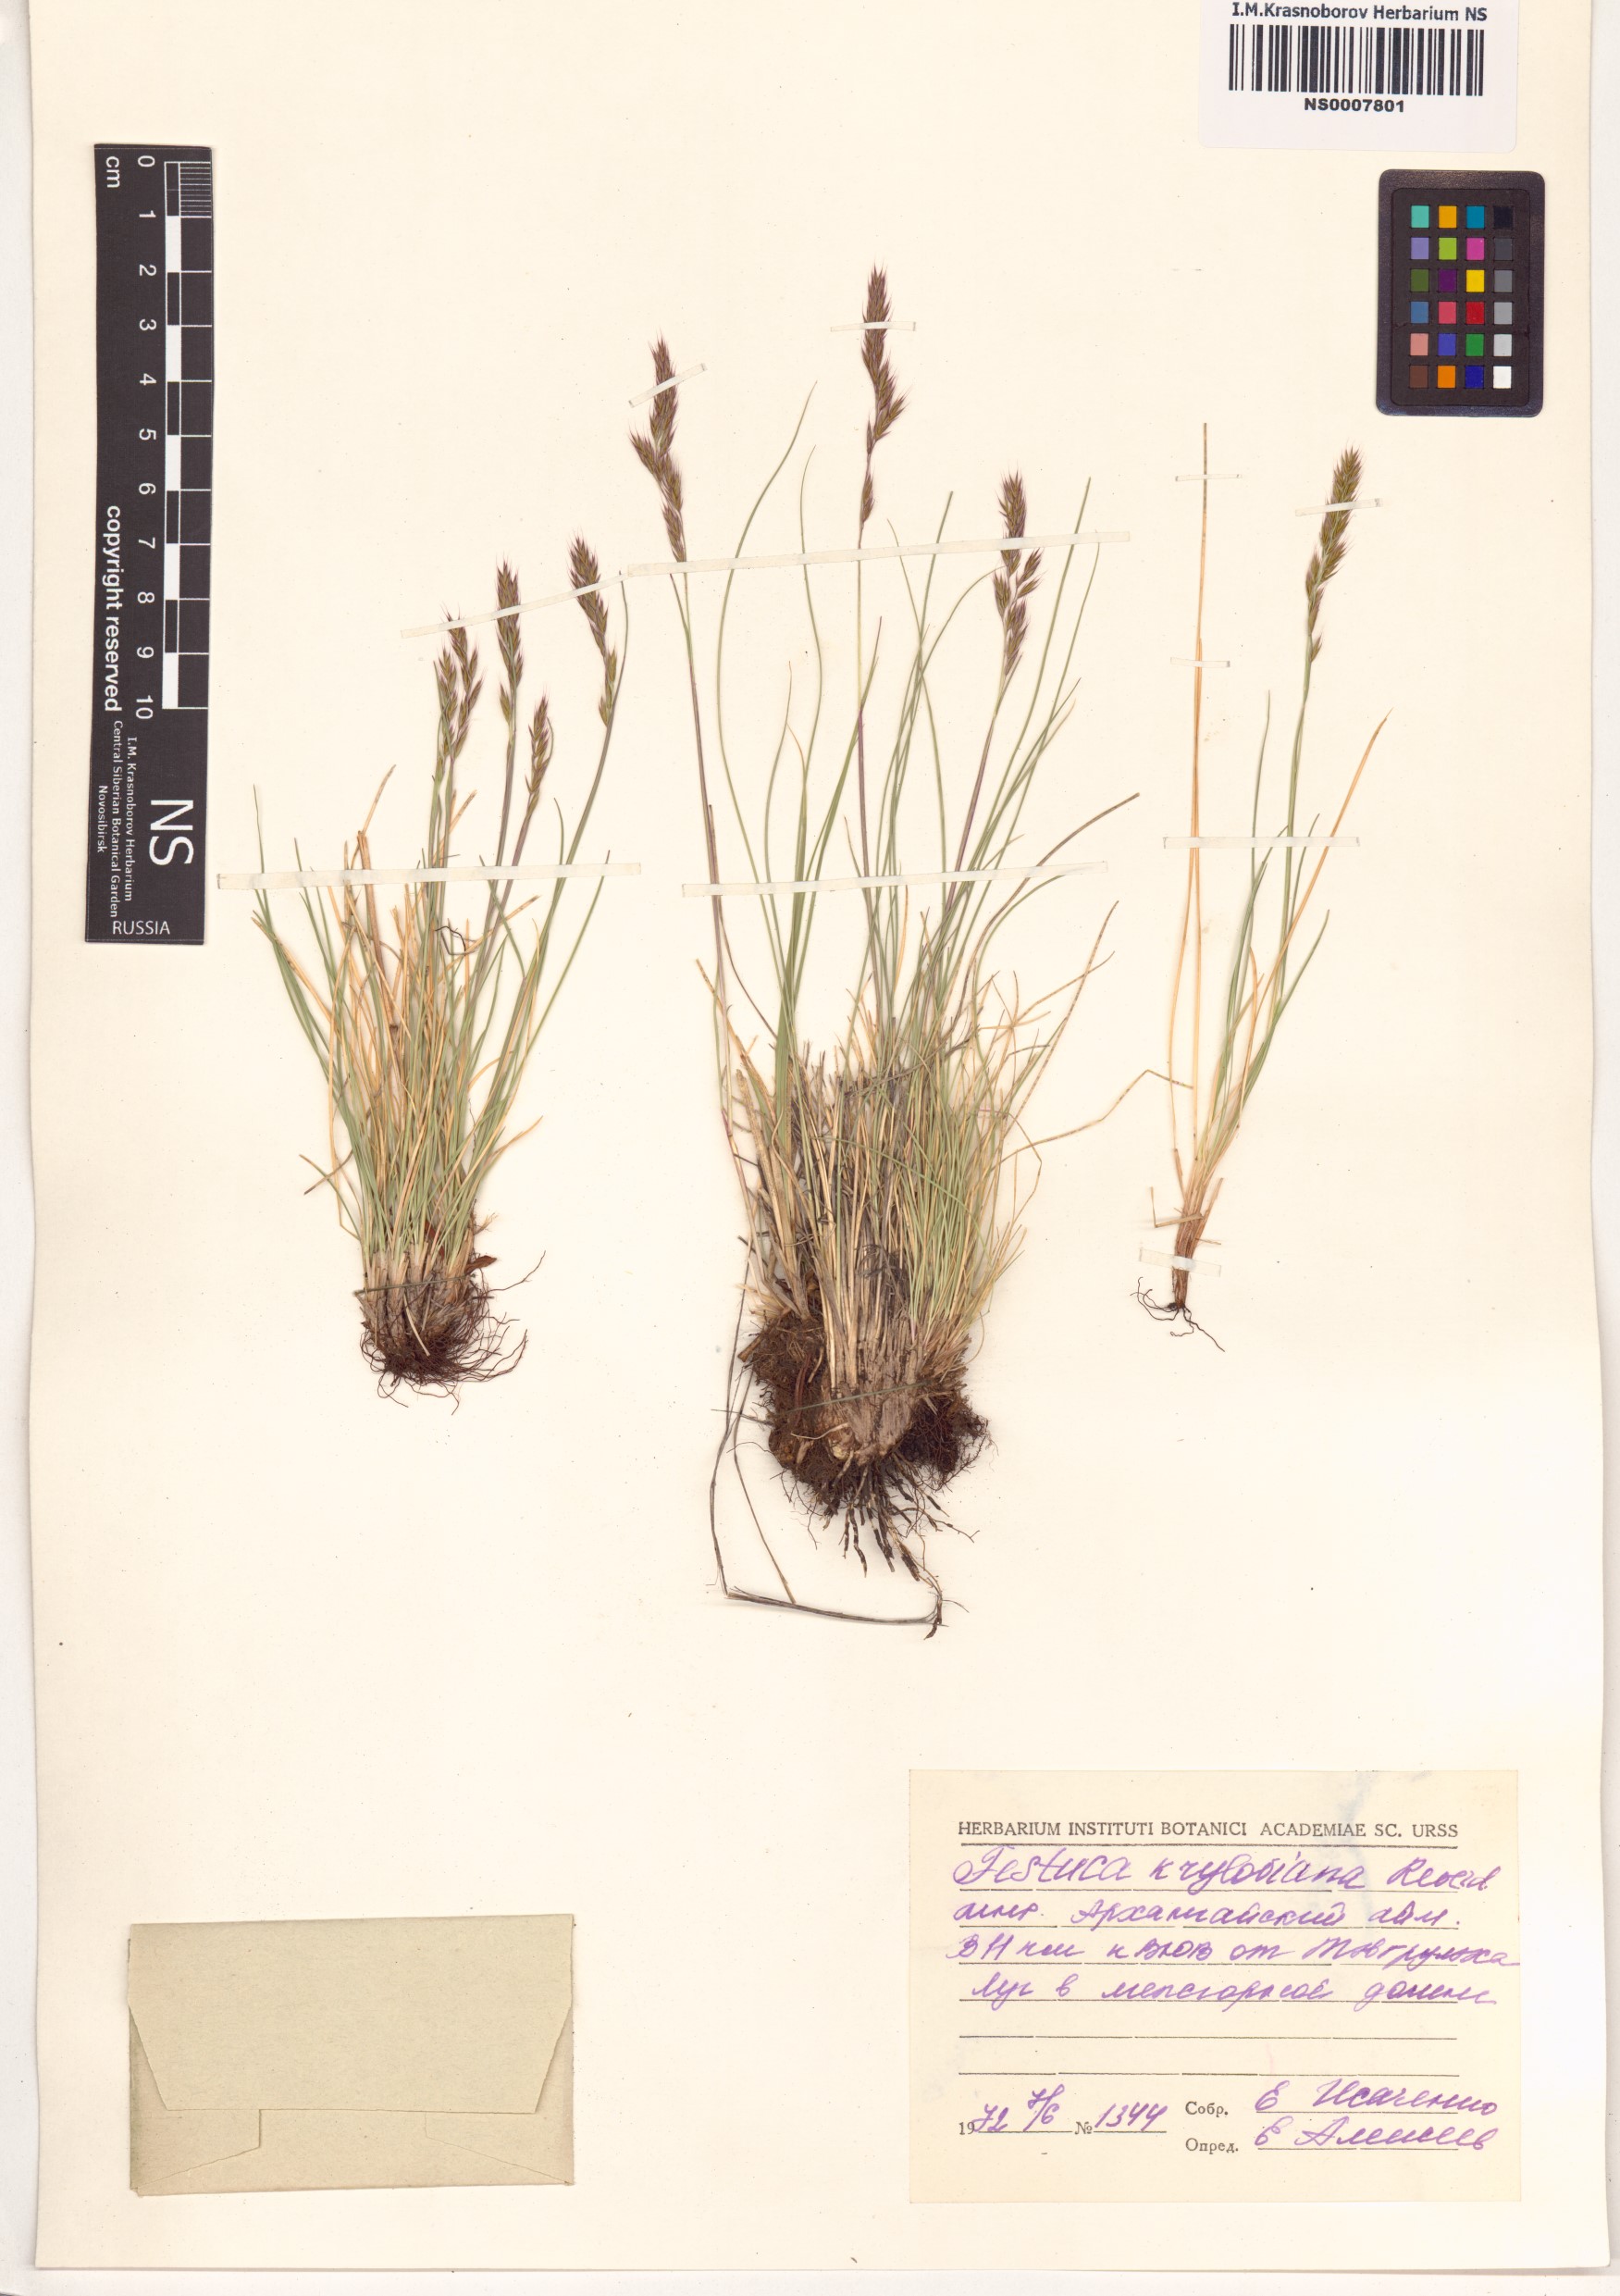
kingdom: Plantae
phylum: Tracheophyta
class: Liliopsida
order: Poales
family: Poaceae
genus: Festuca
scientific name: Festuca kryloviana
